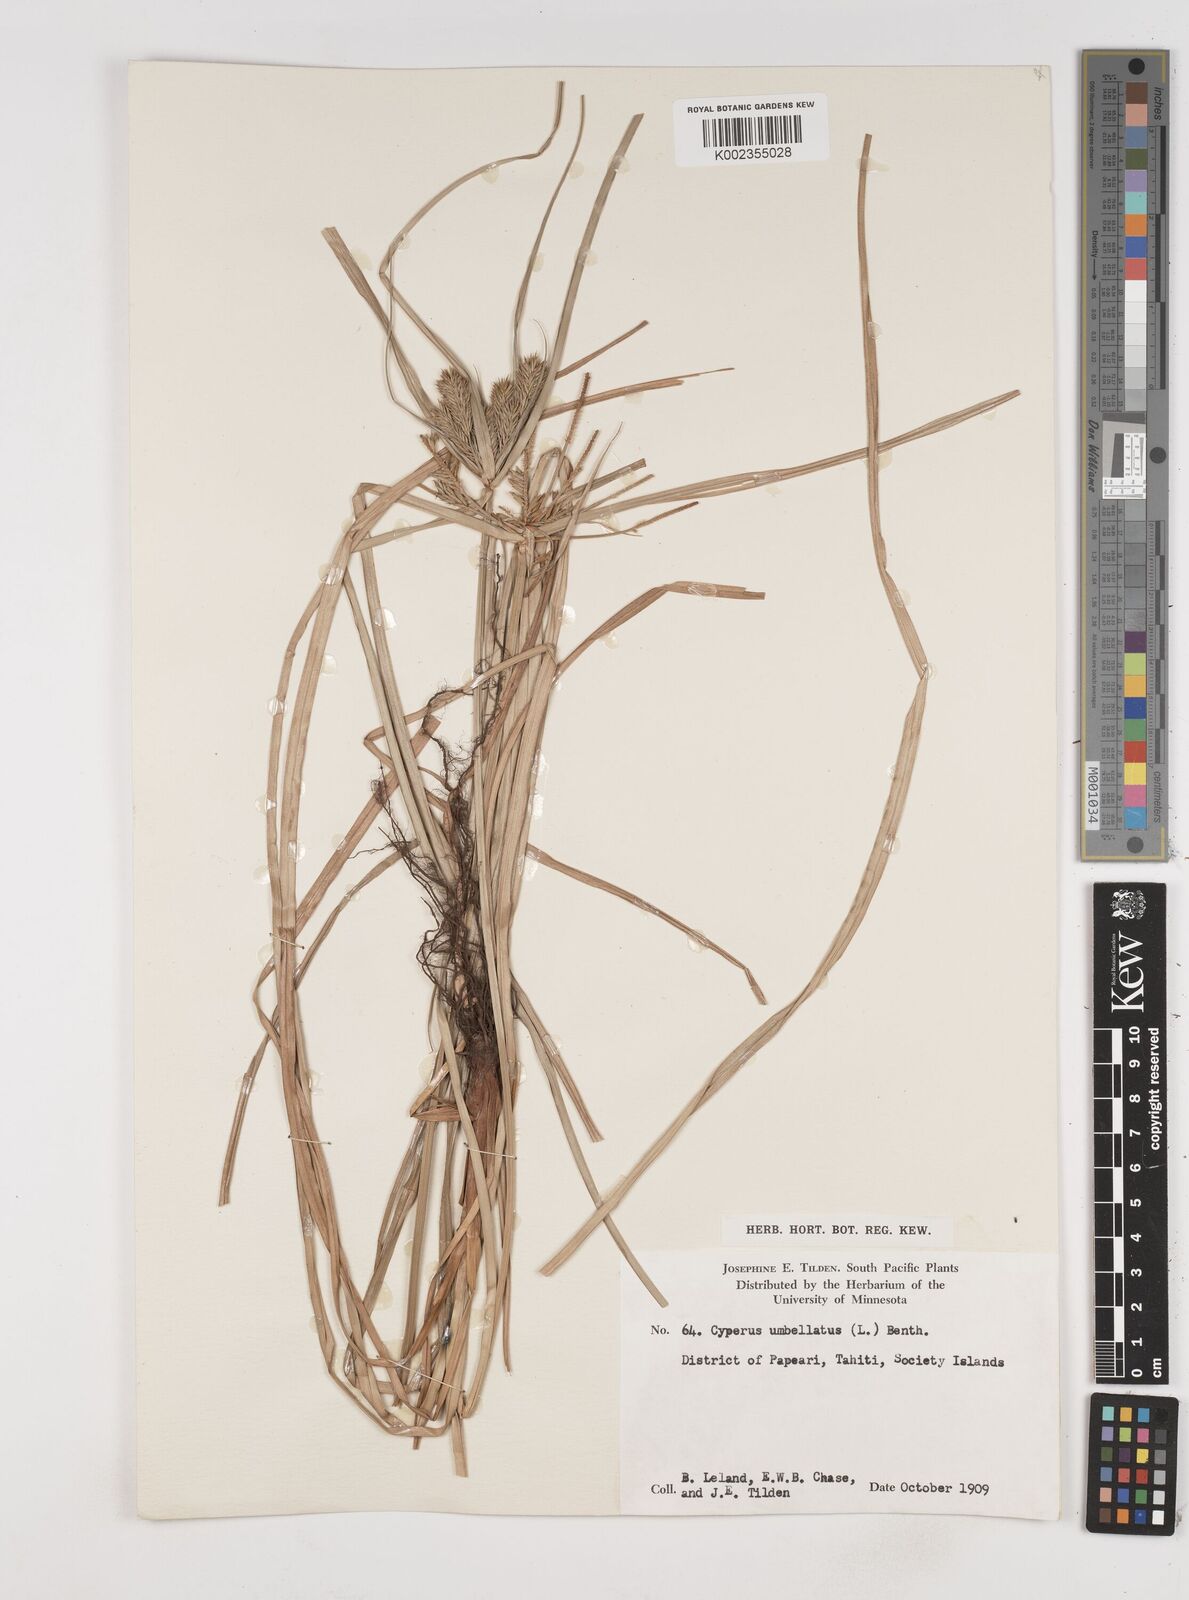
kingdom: Plantae
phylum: Tracheophyta
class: Liliopsida
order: Poales
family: Cyperaceae
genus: Cyperus
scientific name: Cyperus whitmeei
